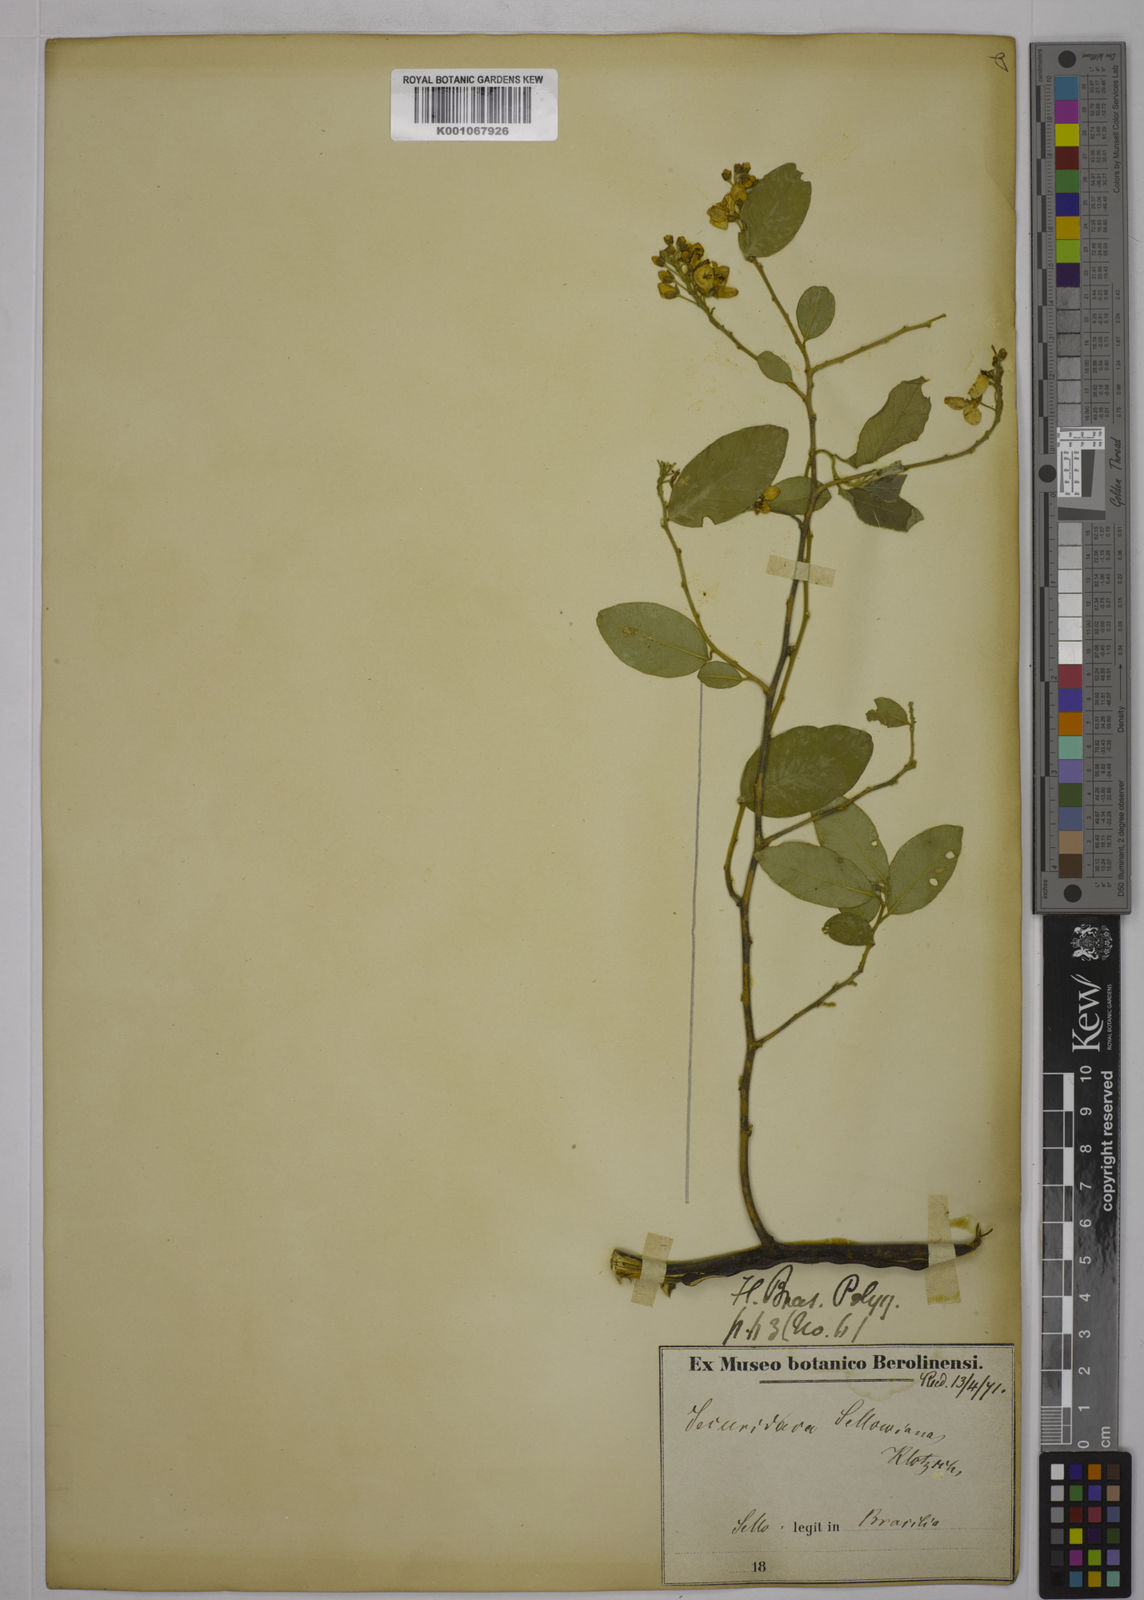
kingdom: Plantae
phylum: Tracheophyta
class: Magnoliopsida
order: Fabales
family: Polygalaceae
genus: Securidaca
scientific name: Securidaca
